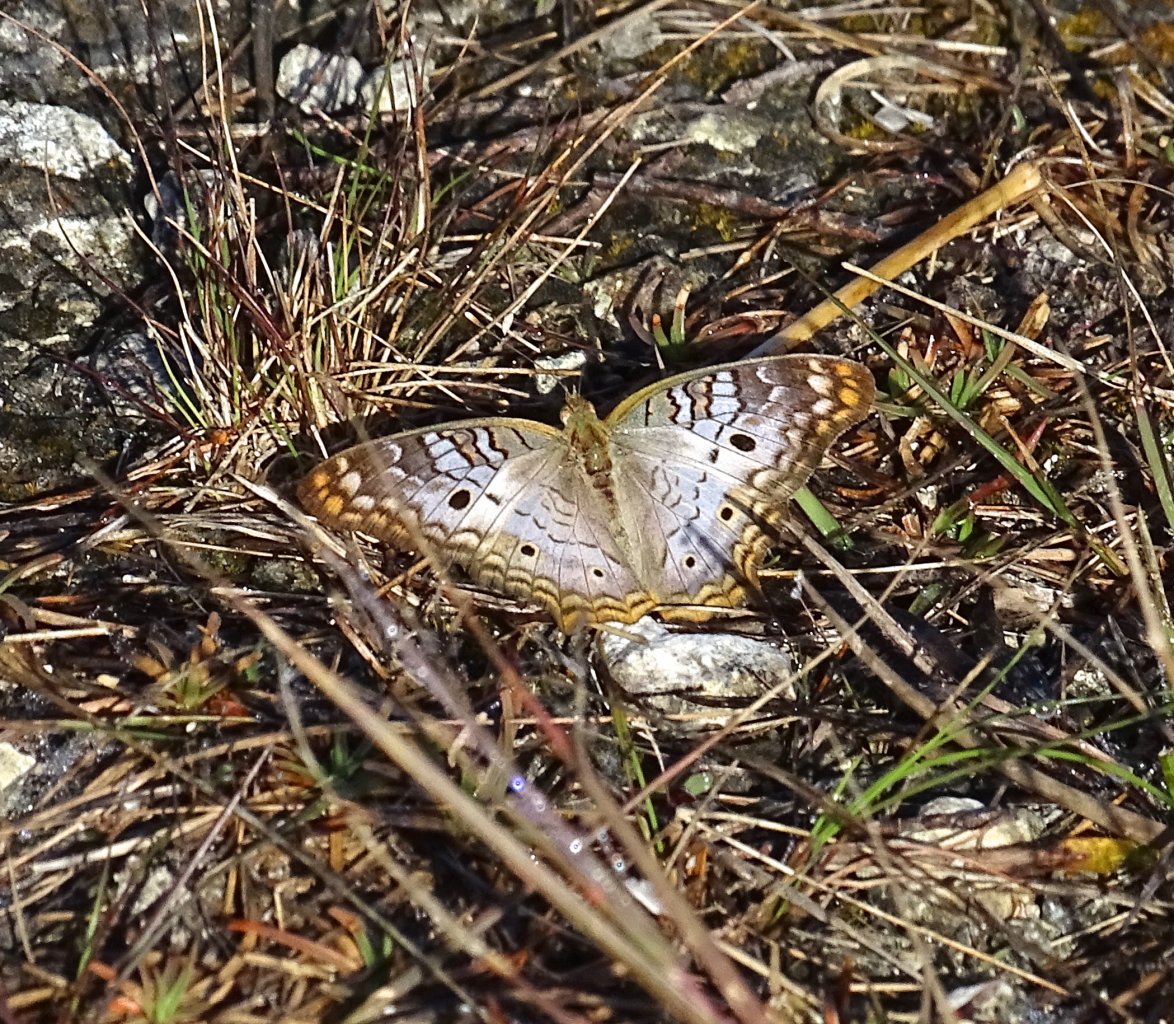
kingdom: Animalia
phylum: Arthropoda
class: Insecta
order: Lepidoptera
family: Nymphalidae
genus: Anartia
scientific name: Anartia jatrophae
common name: White Peacock
